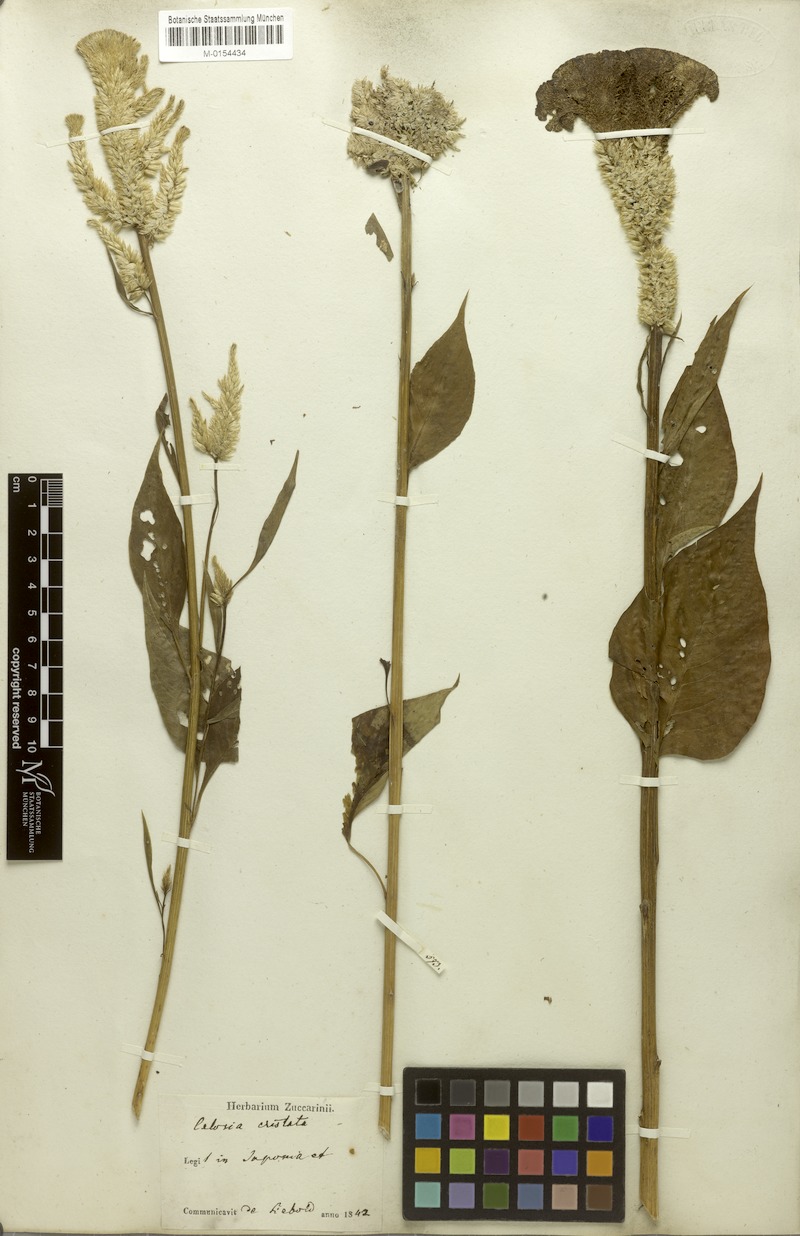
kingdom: Plantae
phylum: Tracheophyta
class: Magnoliopsida
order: Caryophyllales
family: Amaranthaceae
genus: Celosia
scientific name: Celosia argentea
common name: Feather cockscomb
